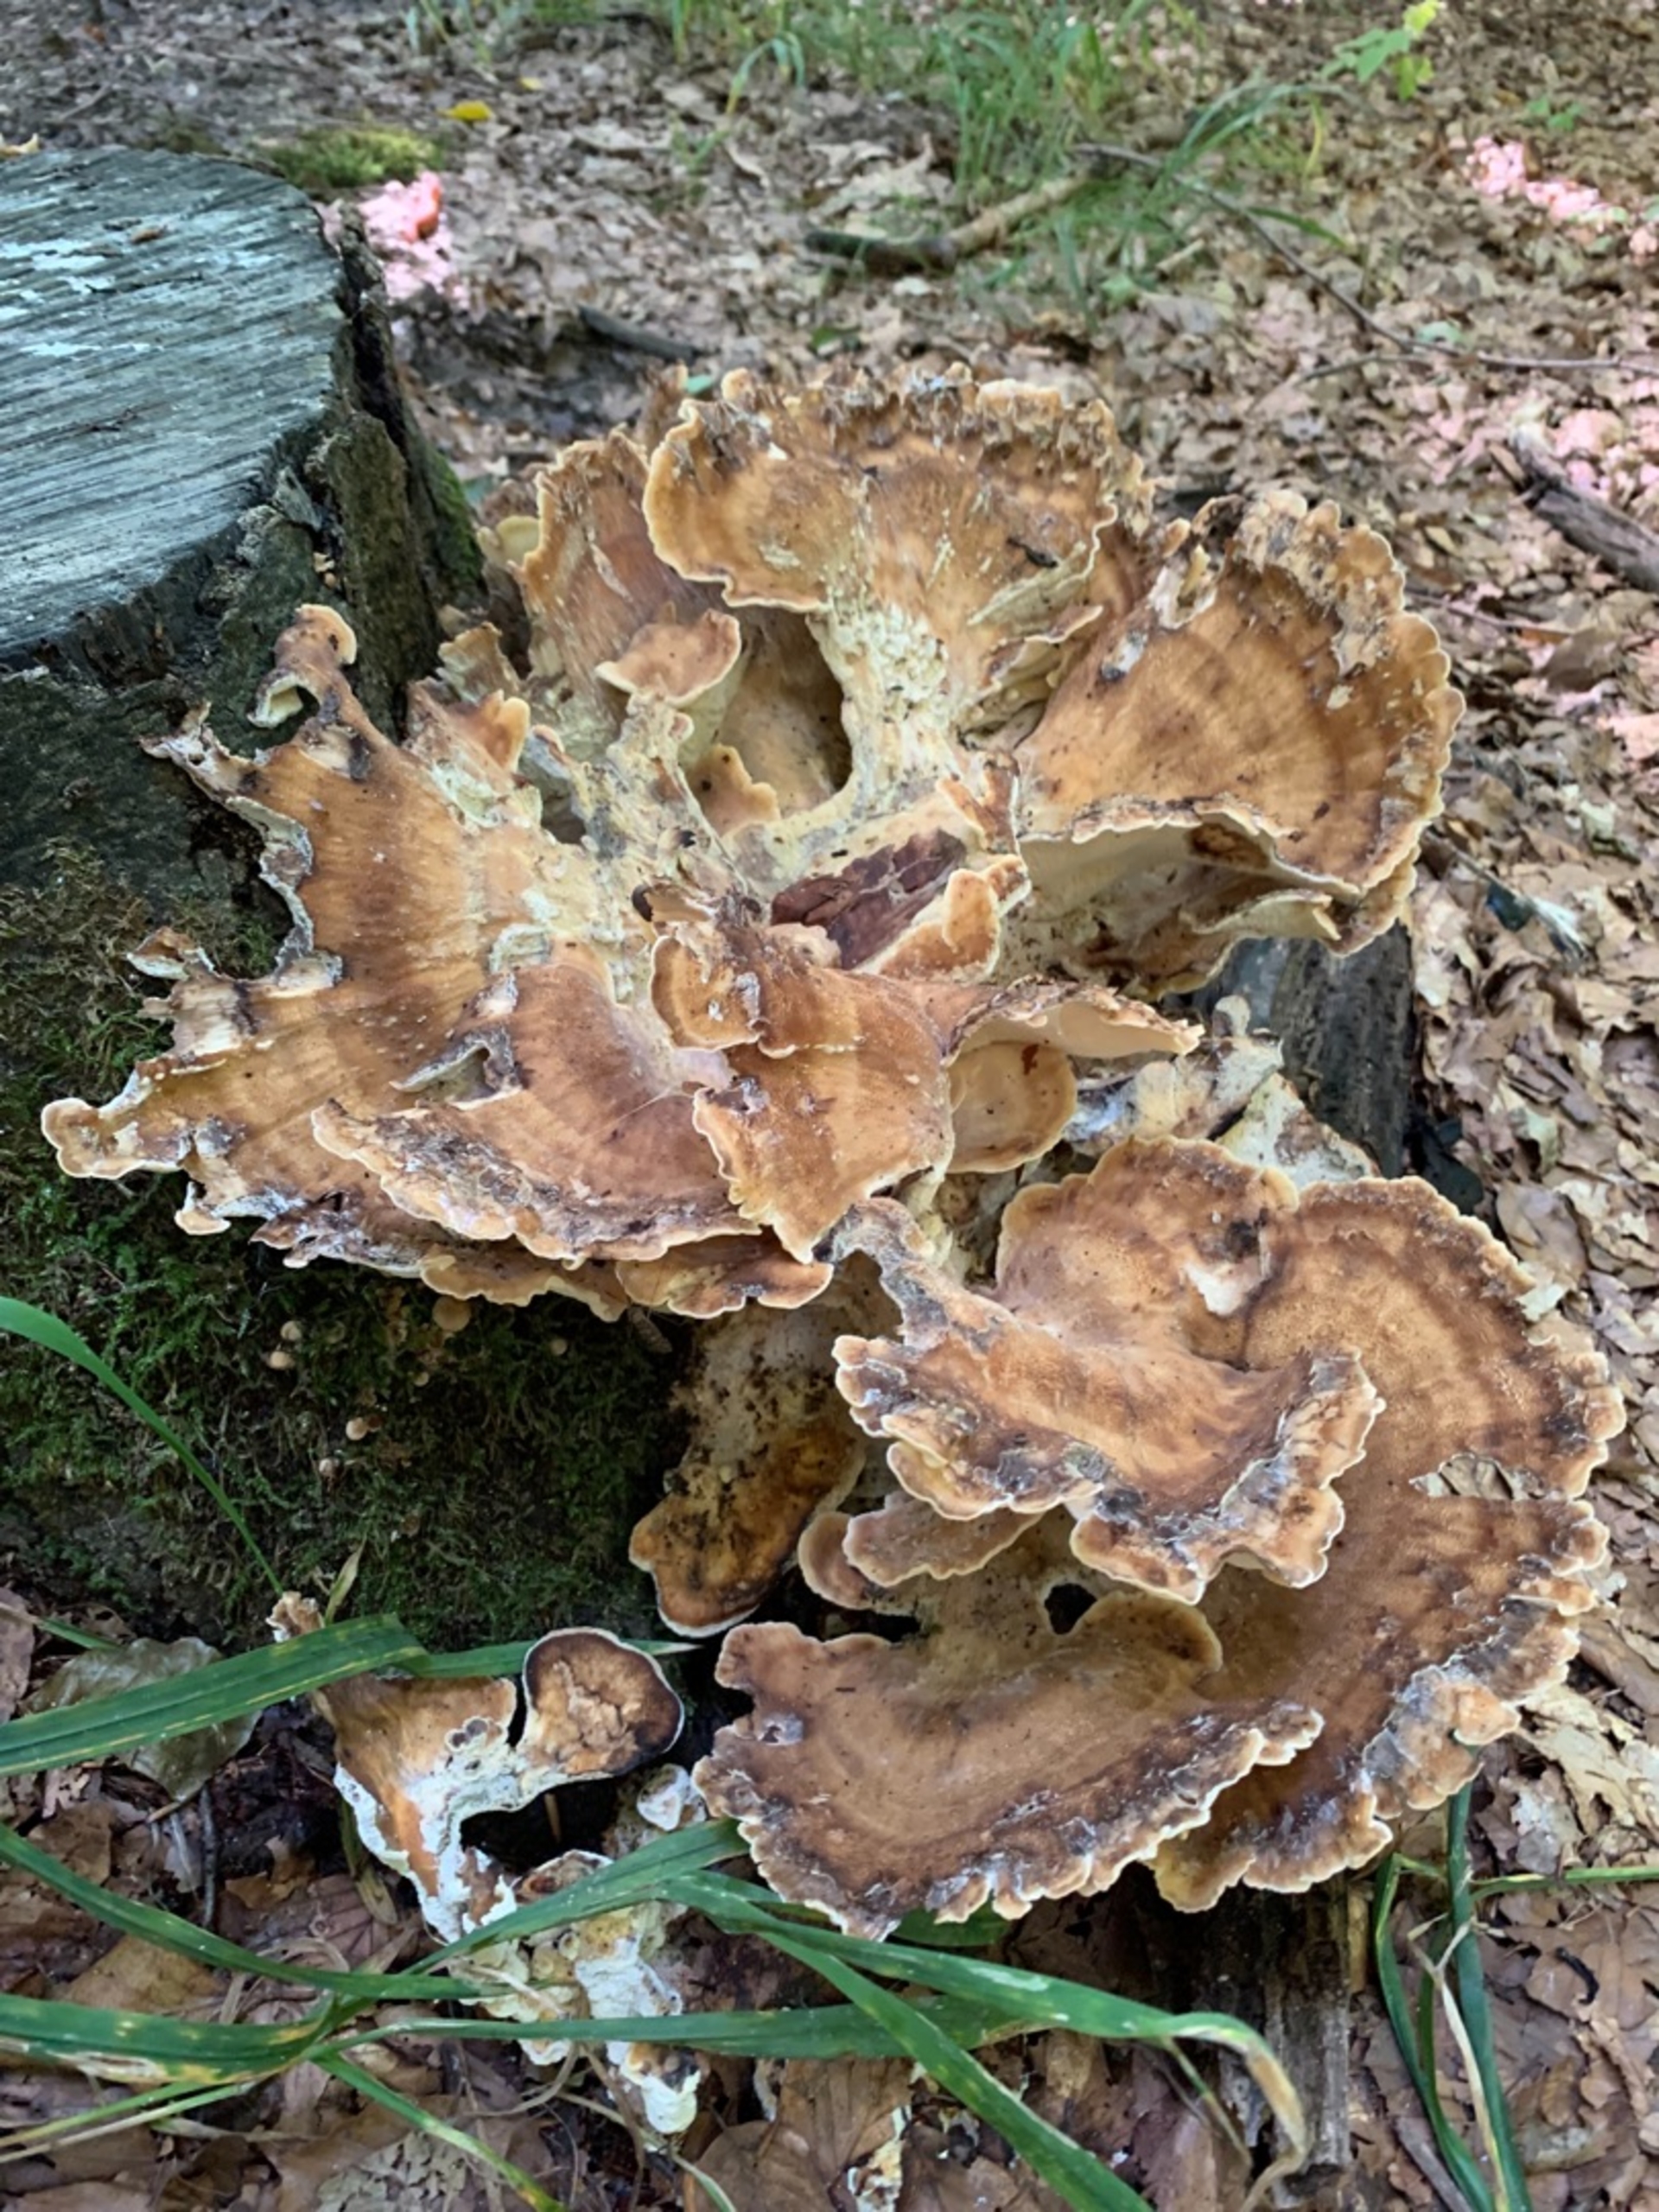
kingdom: Fungi
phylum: Basidiomycota
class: Agaricomycetes
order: Polyporales
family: Meripilaceae
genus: Meripilus
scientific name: Meripilus giganteus
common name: Kæmpeporesvamp
